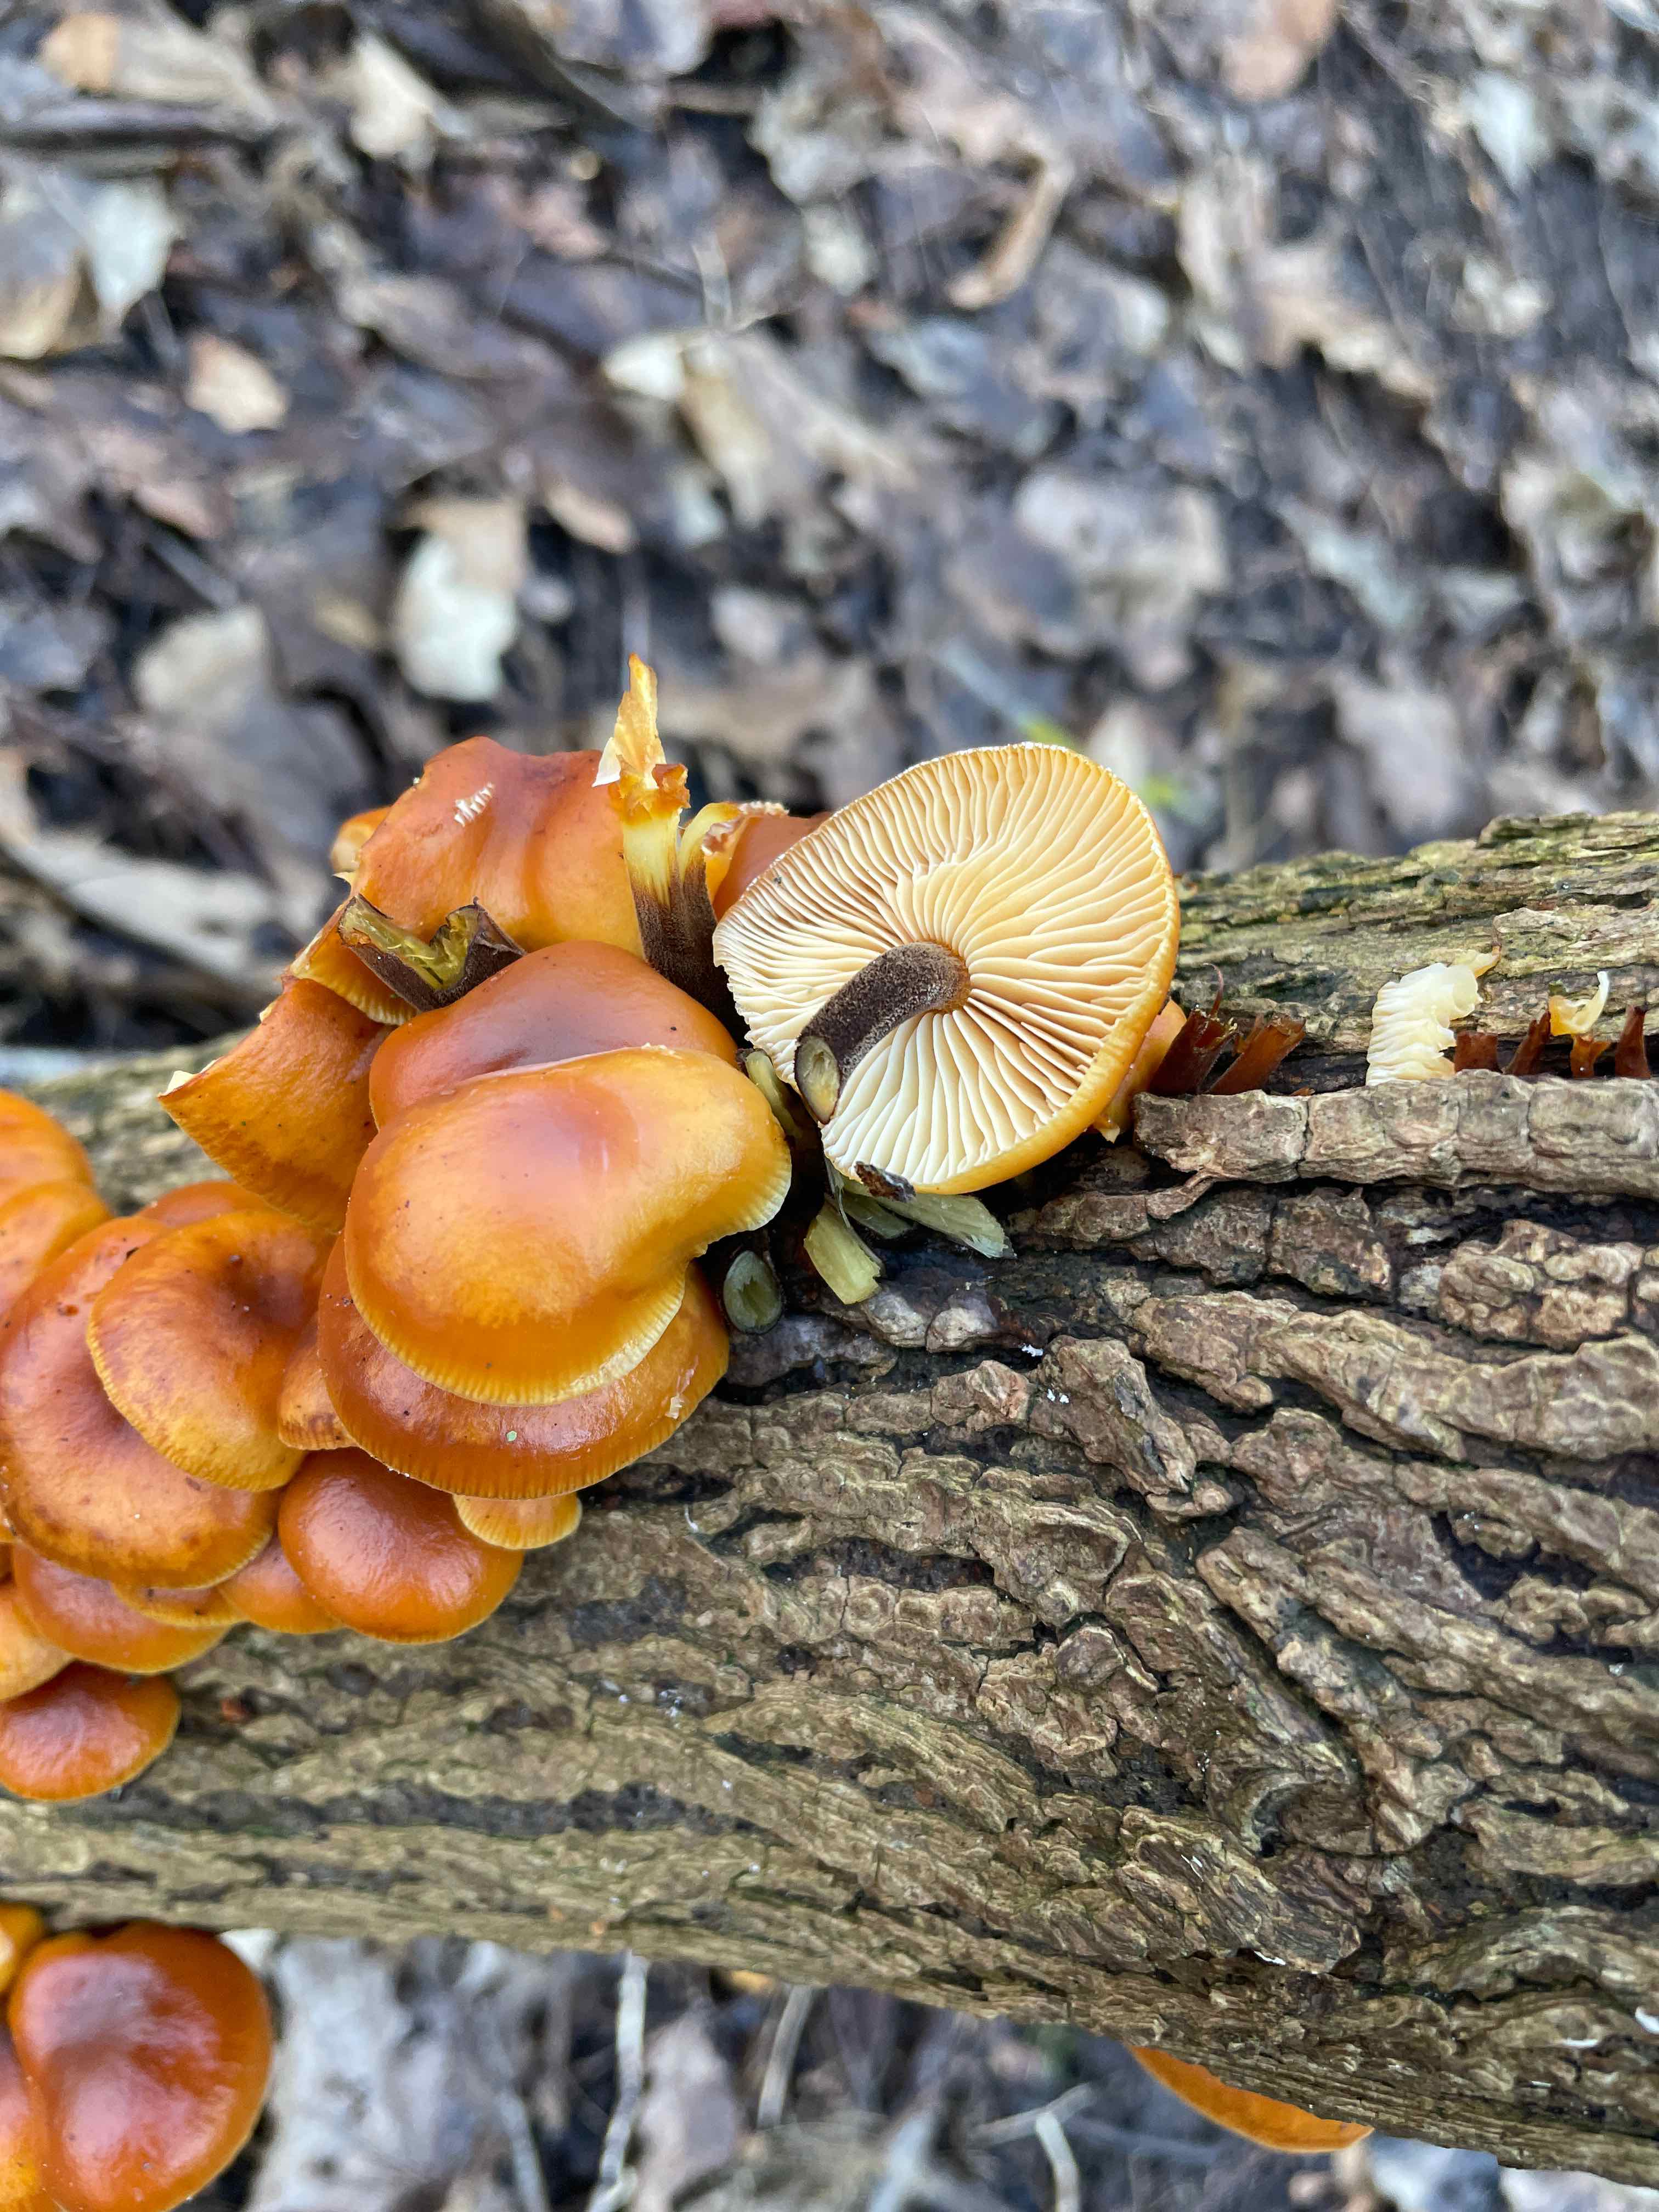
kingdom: Fungi
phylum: Basidiomycota
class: Agaricomycetes
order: Agaricales
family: Physalacriaceae
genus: Flammulina
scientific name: Flammulina velutipes
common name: gul fløjlsfod
